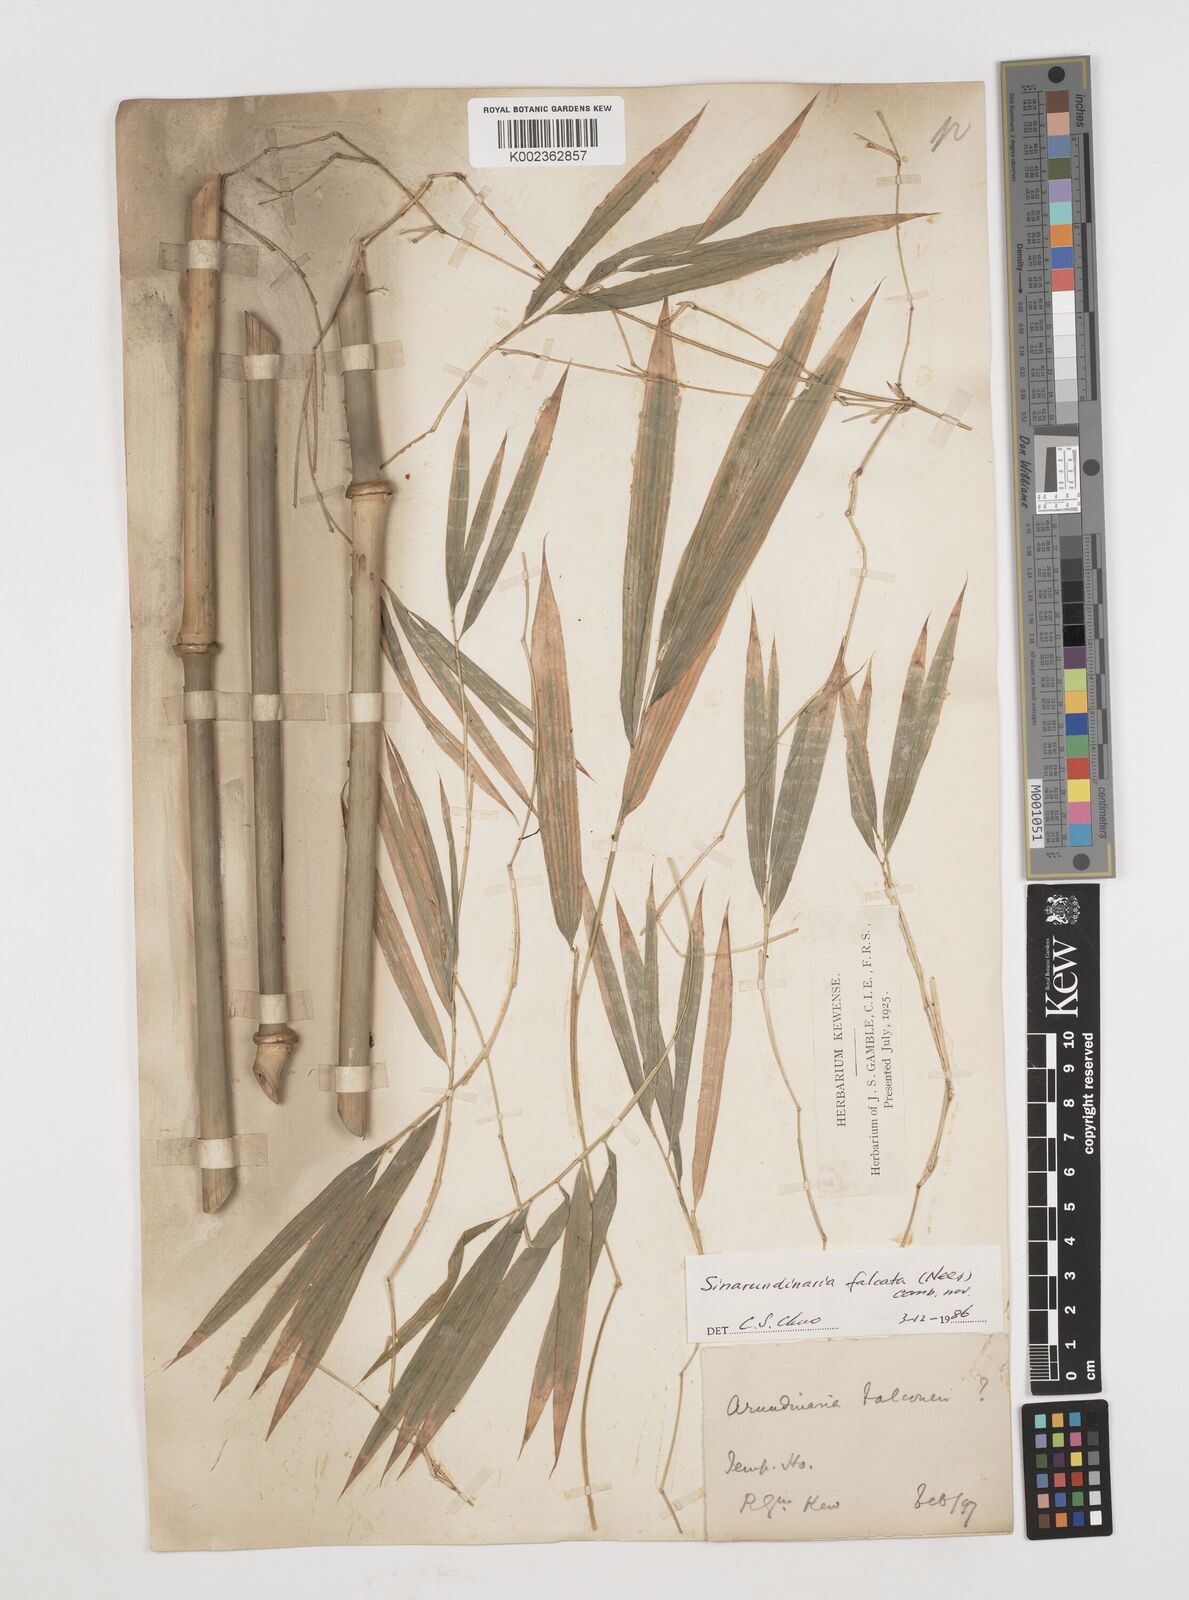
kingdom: Plantae
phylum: Tracheophyta
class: Liliopsida
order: Poales
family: Poaceae
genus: Drepanostachyum
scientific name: Drepanostachyum falcatum
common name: Himalayan bamboo
